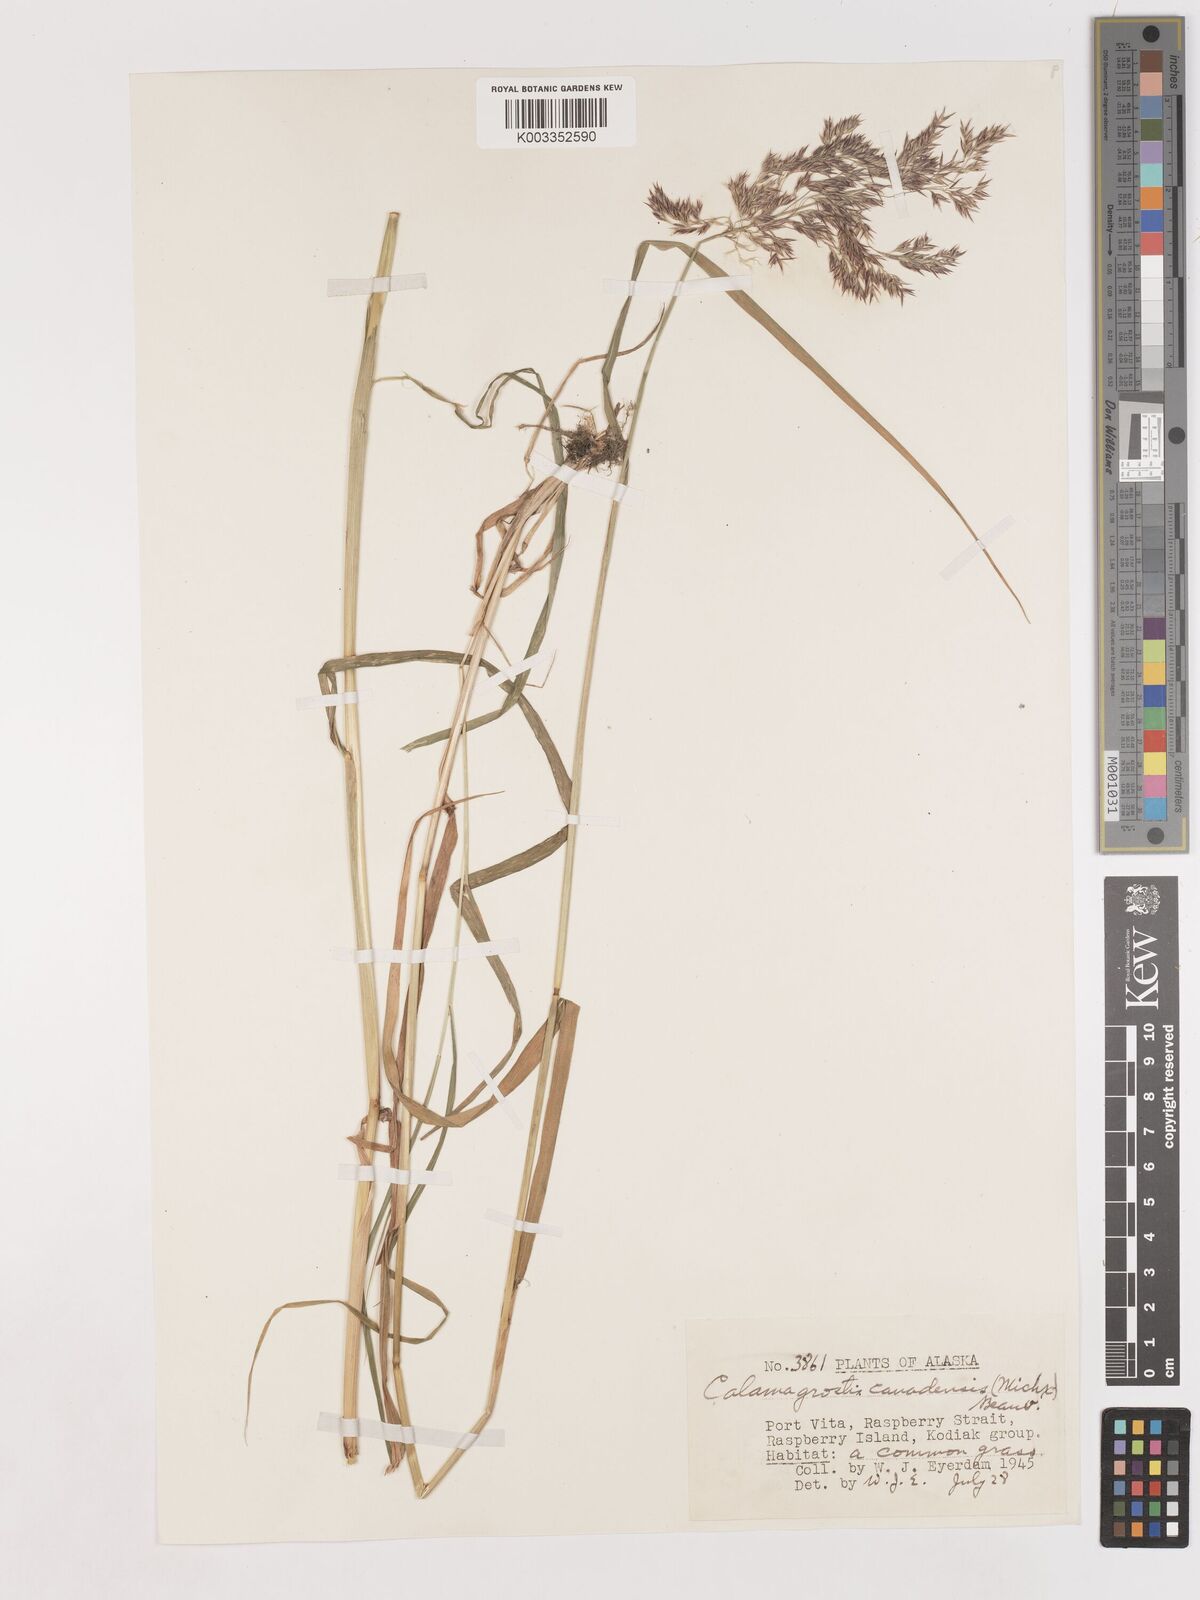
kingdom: Plantae
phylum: Tracheophyta
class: Liliopsida
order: Poales
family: Poaceae
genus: Calamagrostis
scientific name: Calamagrostis canadensis
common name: Canada bluejoint
